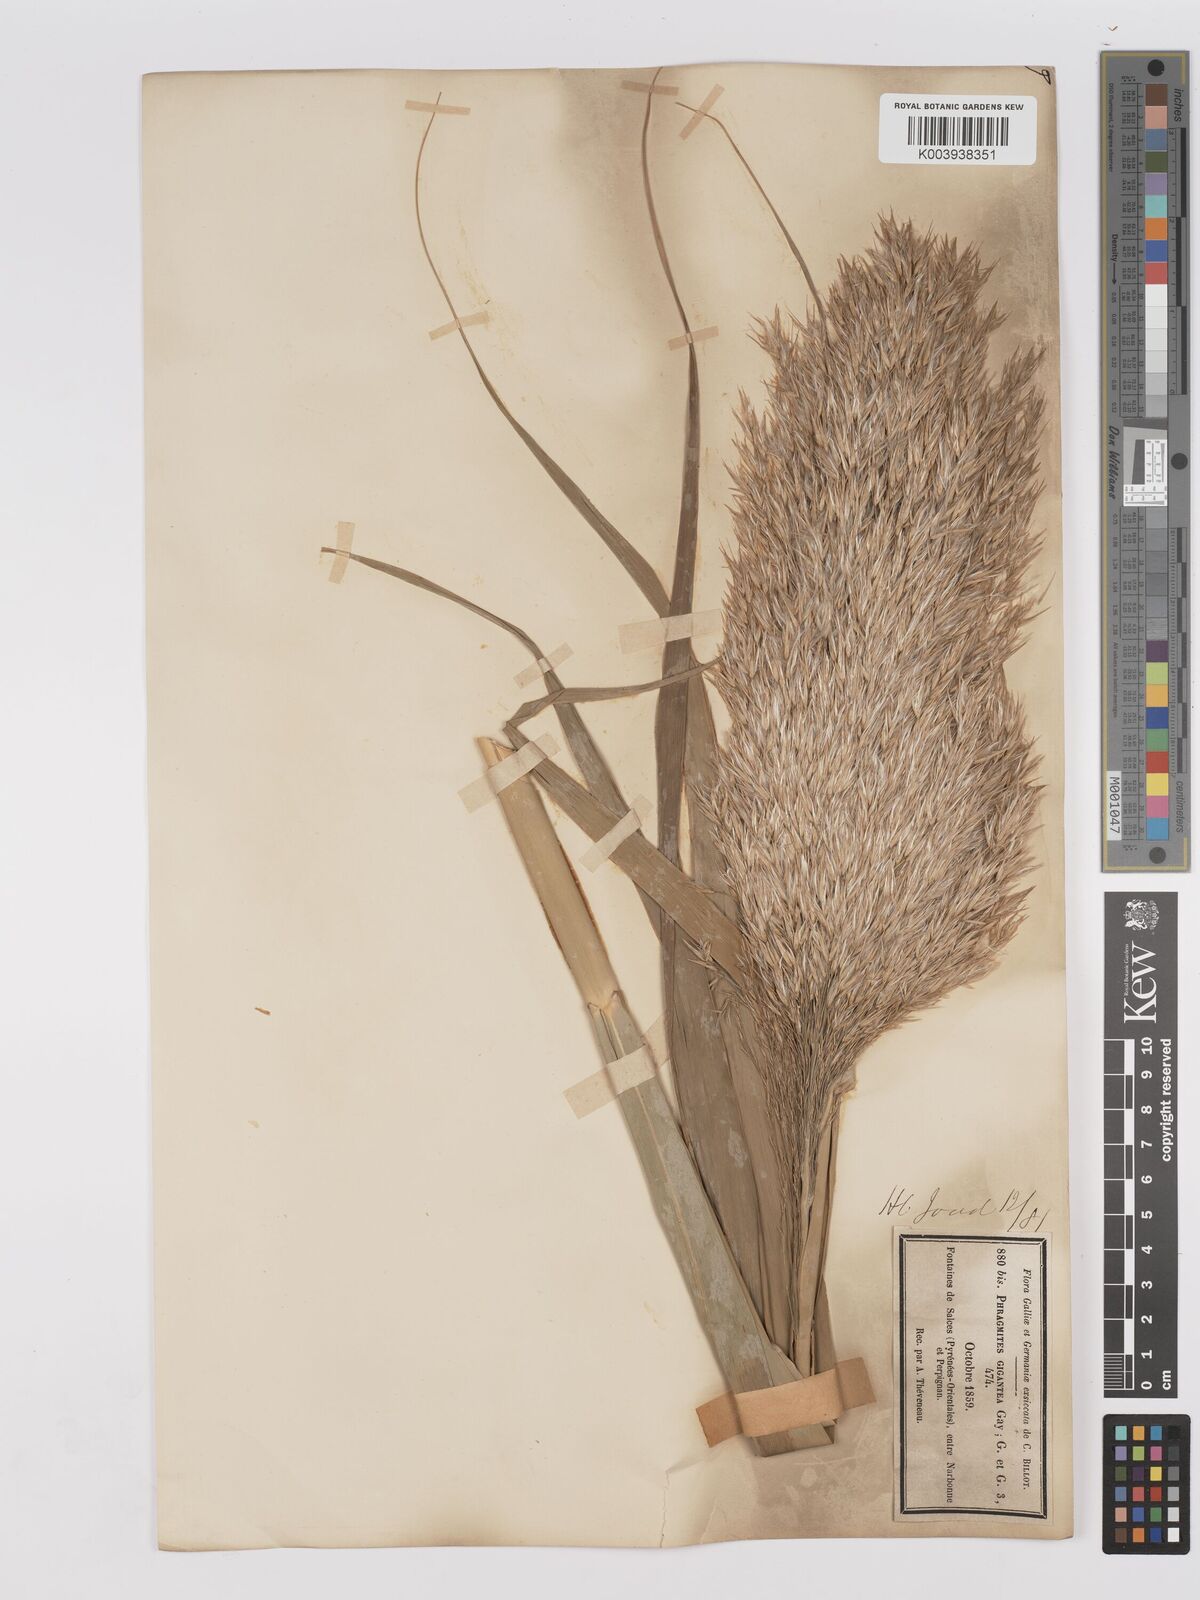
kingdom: Plantae
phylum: Tracheophyta
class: Liliopsida
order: Poales
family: Poaceae
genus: Phragmites
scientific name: Phragmites australis
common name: Common reed
